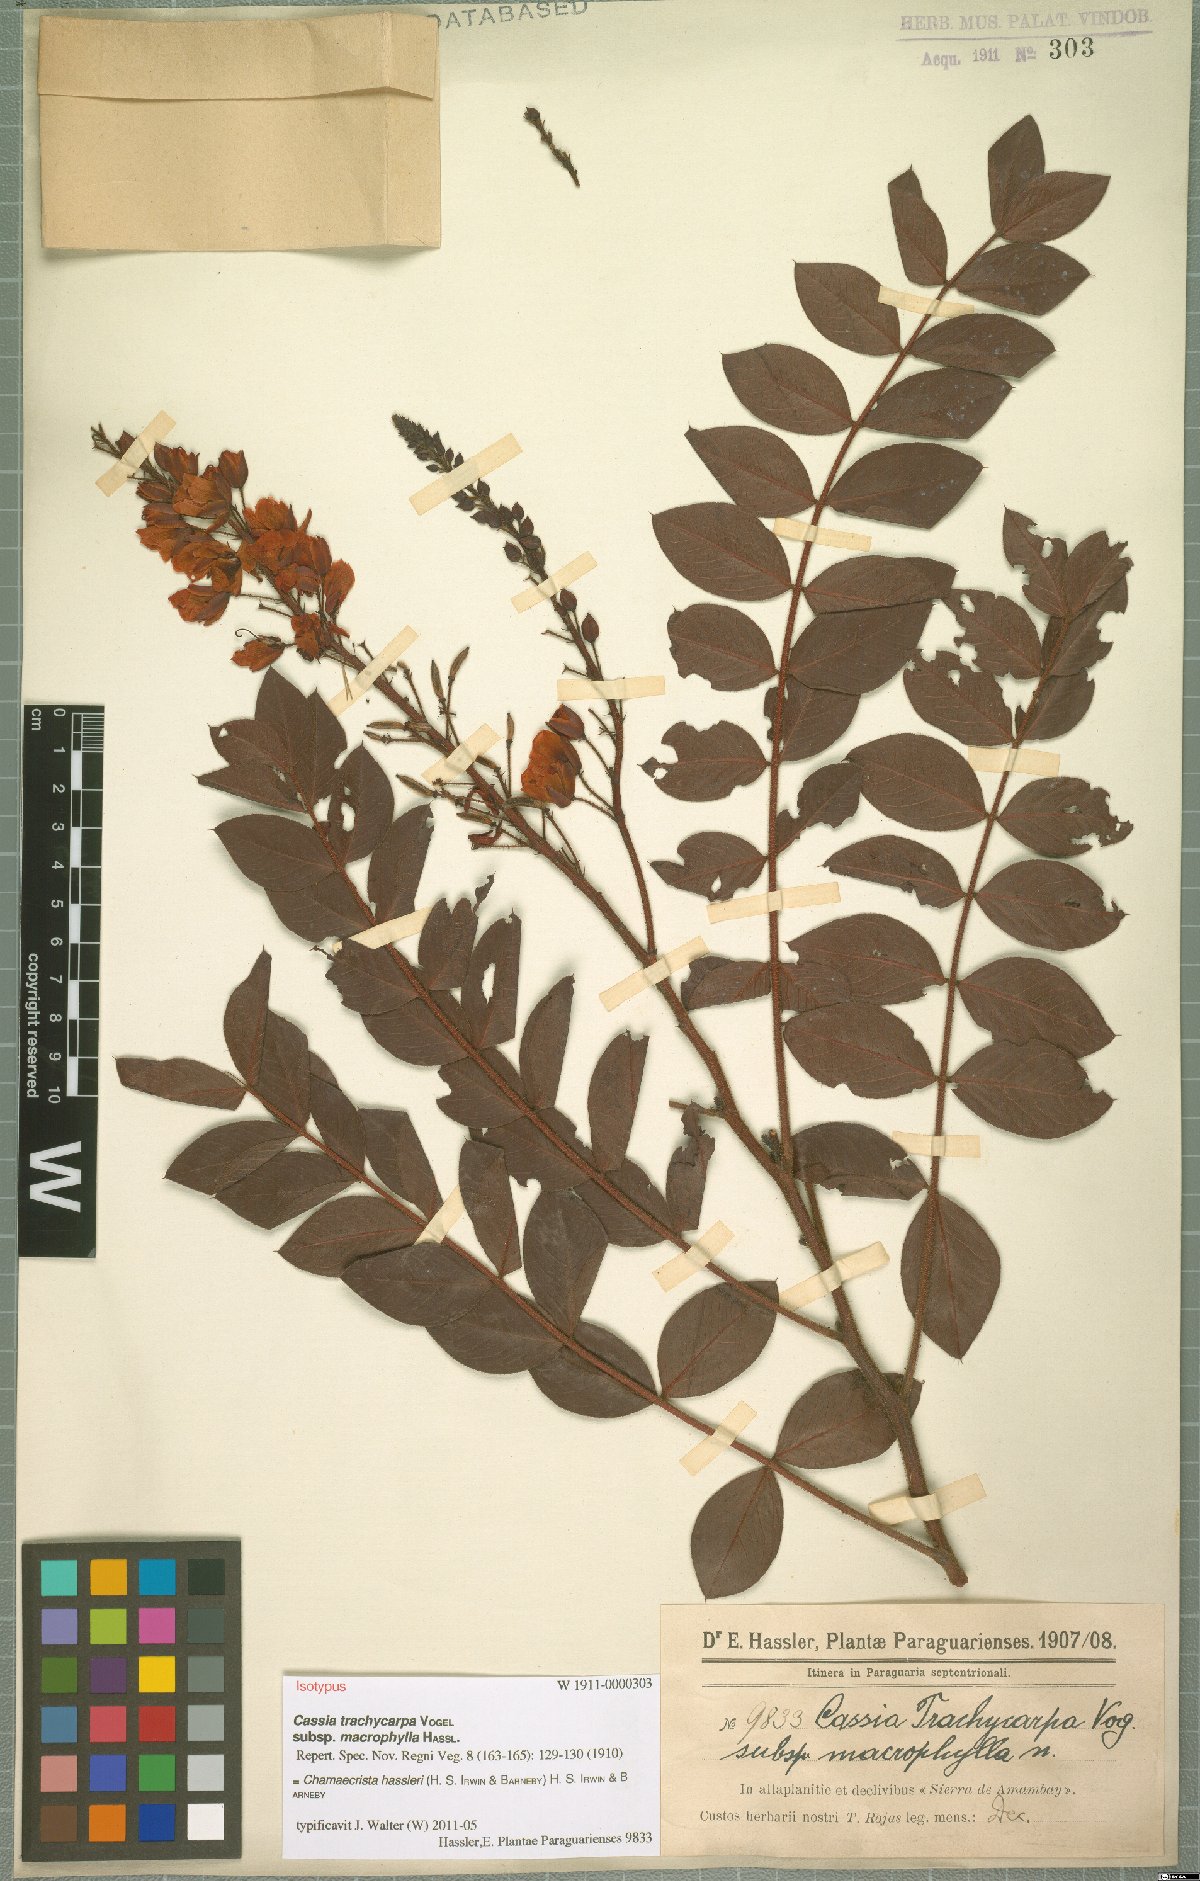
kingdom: Plantae
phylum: Tracheophyta
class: Magnoliopsida
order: Fabales
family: Fabaceae
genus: Chamaecrista
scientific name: Chamaecrista hassleri
